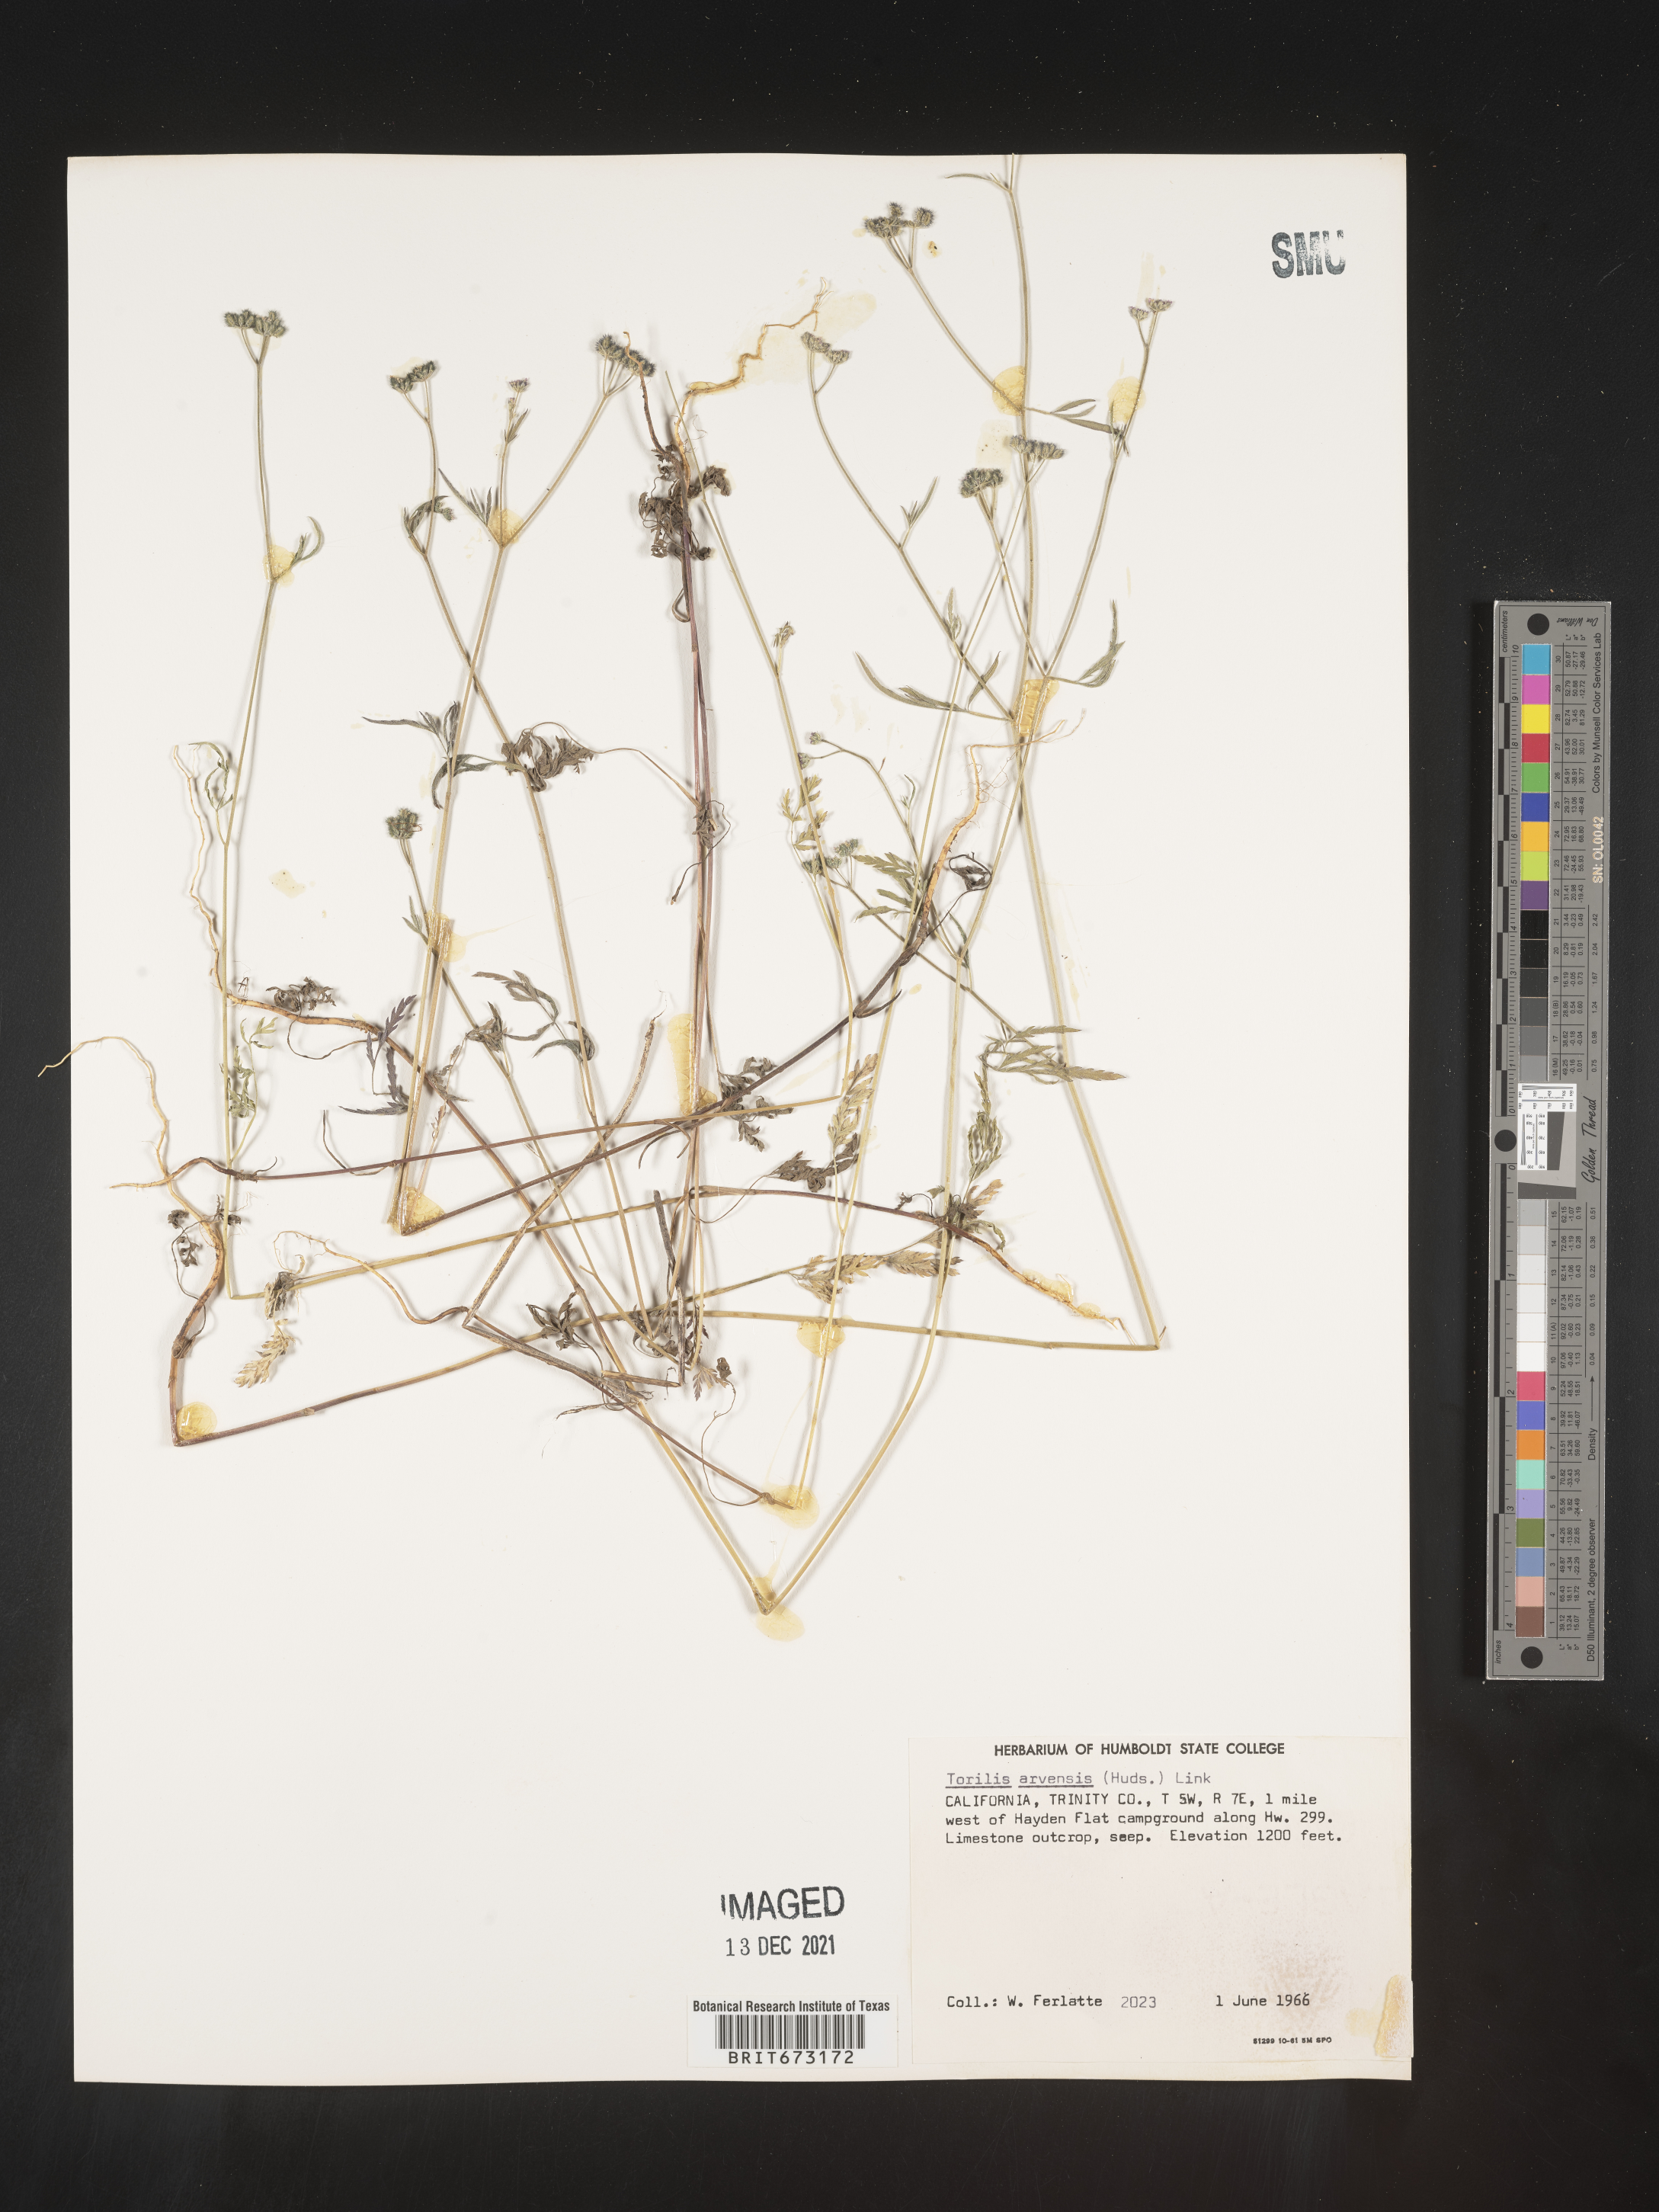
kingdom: Plantae
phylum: Tracheophyta
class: Magnoliopsida
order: Apiales
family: Apiaceae
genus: Torilis
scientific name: Torilis arvensis
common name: Spreading hedge-parsley
